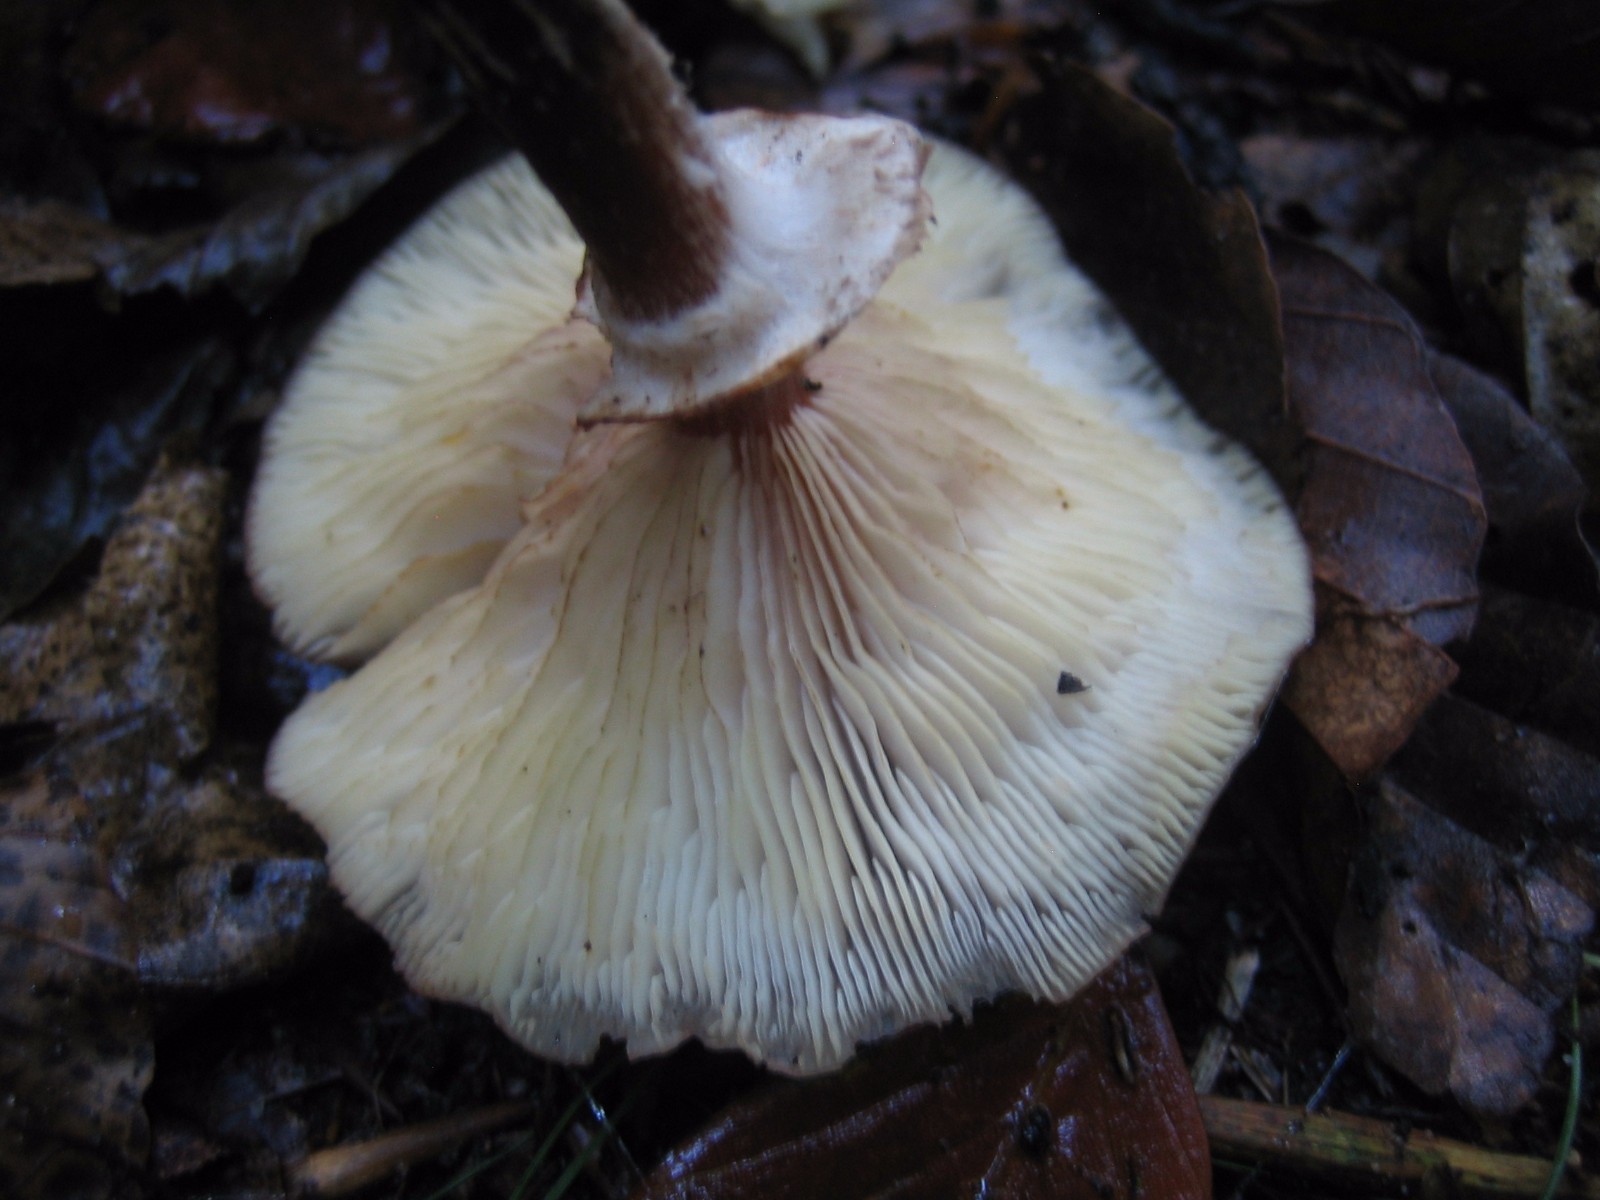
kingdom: Fungi
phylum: Basidiomycota
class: Agaricomycetes
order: Agaricales
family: Physalacriaceae
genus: Armillaria
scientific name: Armillaria mellea
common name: ægte honningsvamp
